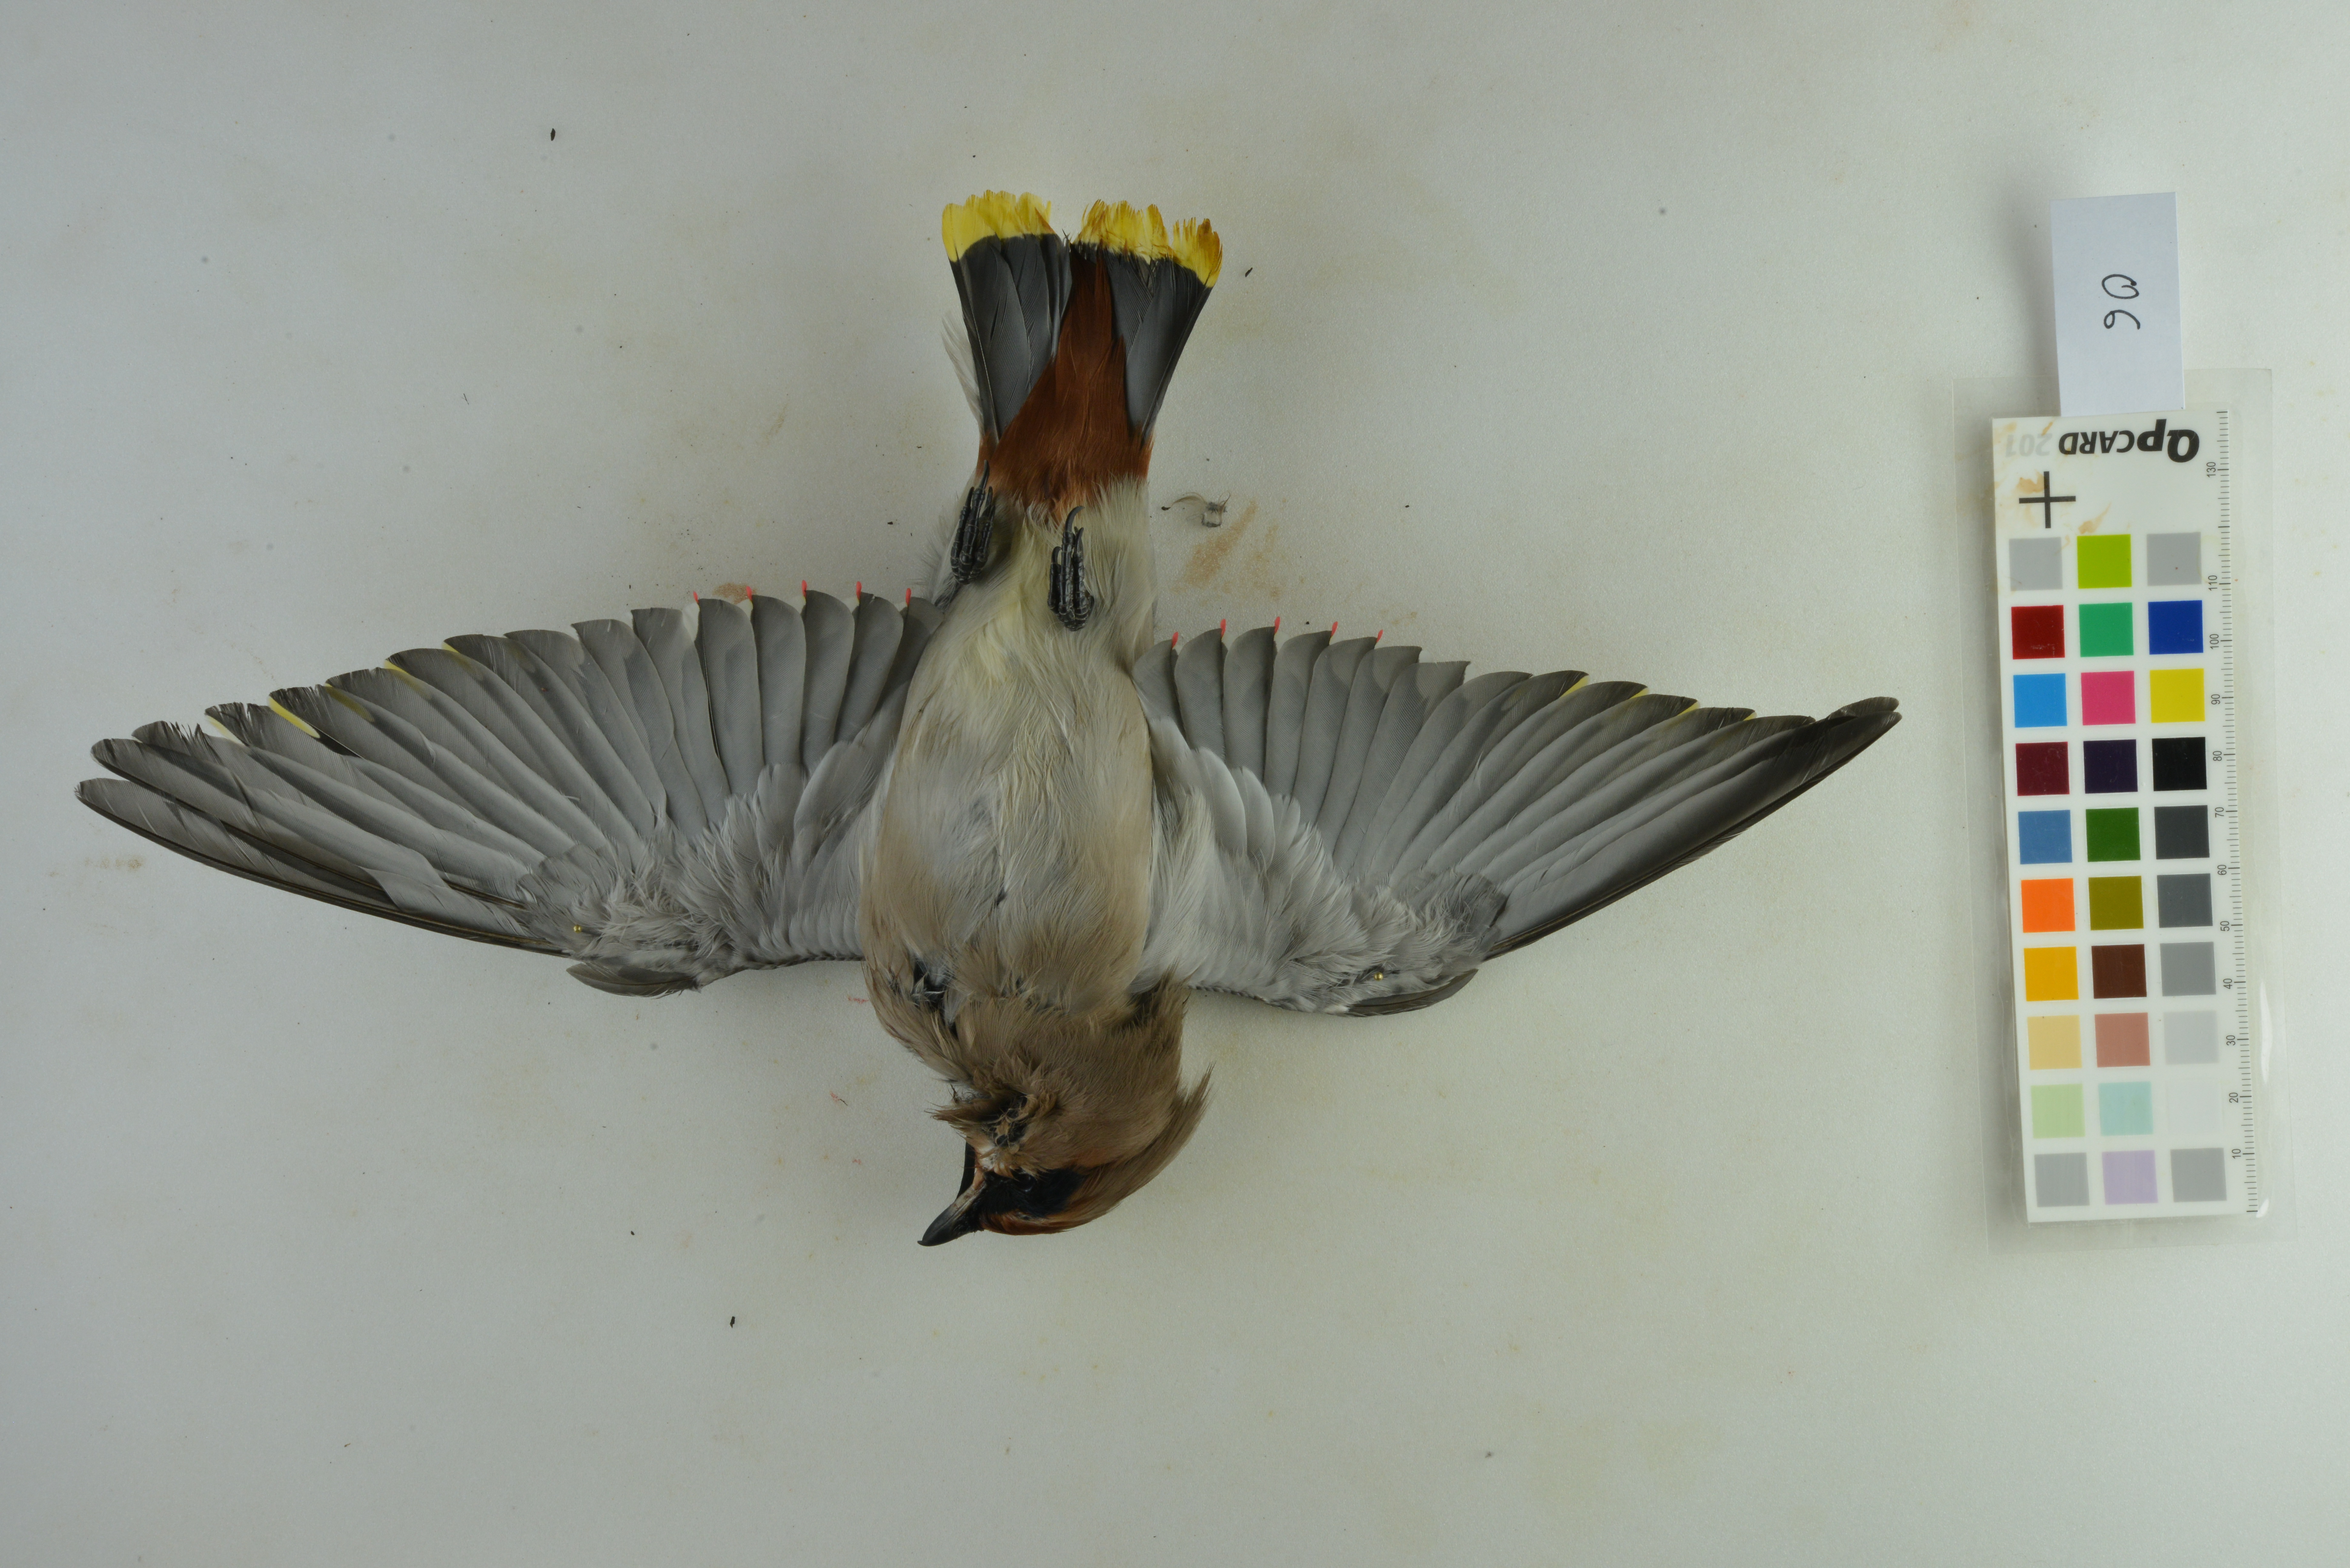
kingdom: Animalia
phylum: Chordata
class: Aves
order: Passeriformes
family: Bombycillidae
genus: Bombycilla
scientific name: Bombycilla garrulus
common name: Bohemian waxwing
